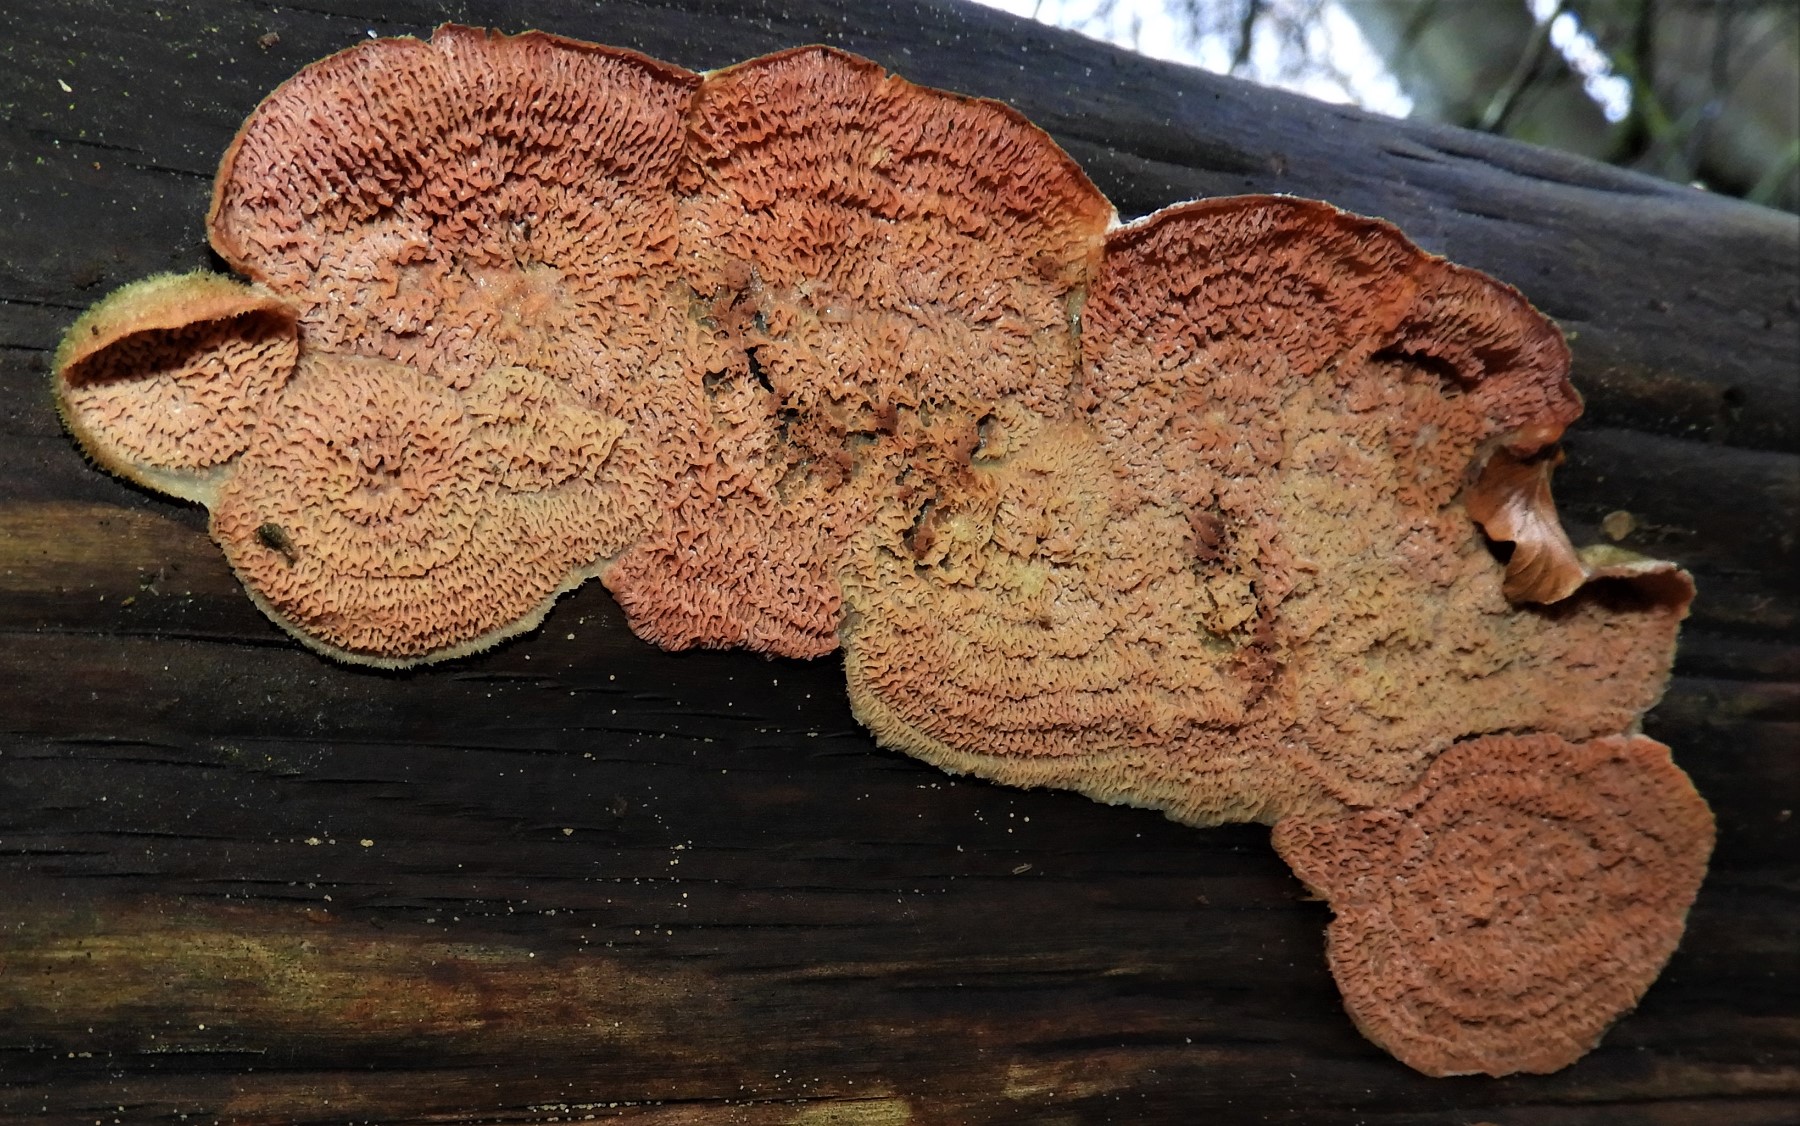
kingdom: Fungi
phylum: Basidiomycota
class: Agaricomycetes
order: Polyporales
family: Meruliaceae
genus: Phlebia
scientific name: Phlebia tremellosa
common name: bævrende åresvamp
